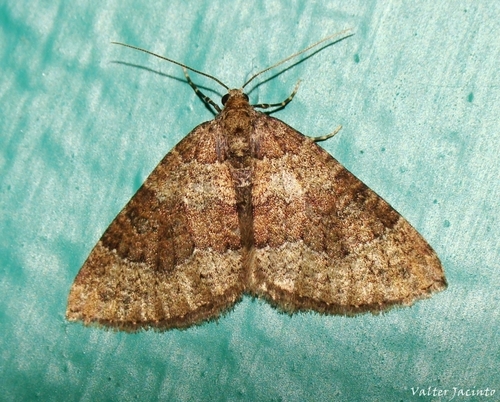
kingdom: Animalia
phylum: Arthropoda
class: Insecta
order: Lepidoptera
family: Geometridae
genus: Nebula
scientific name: Nebula malvata
